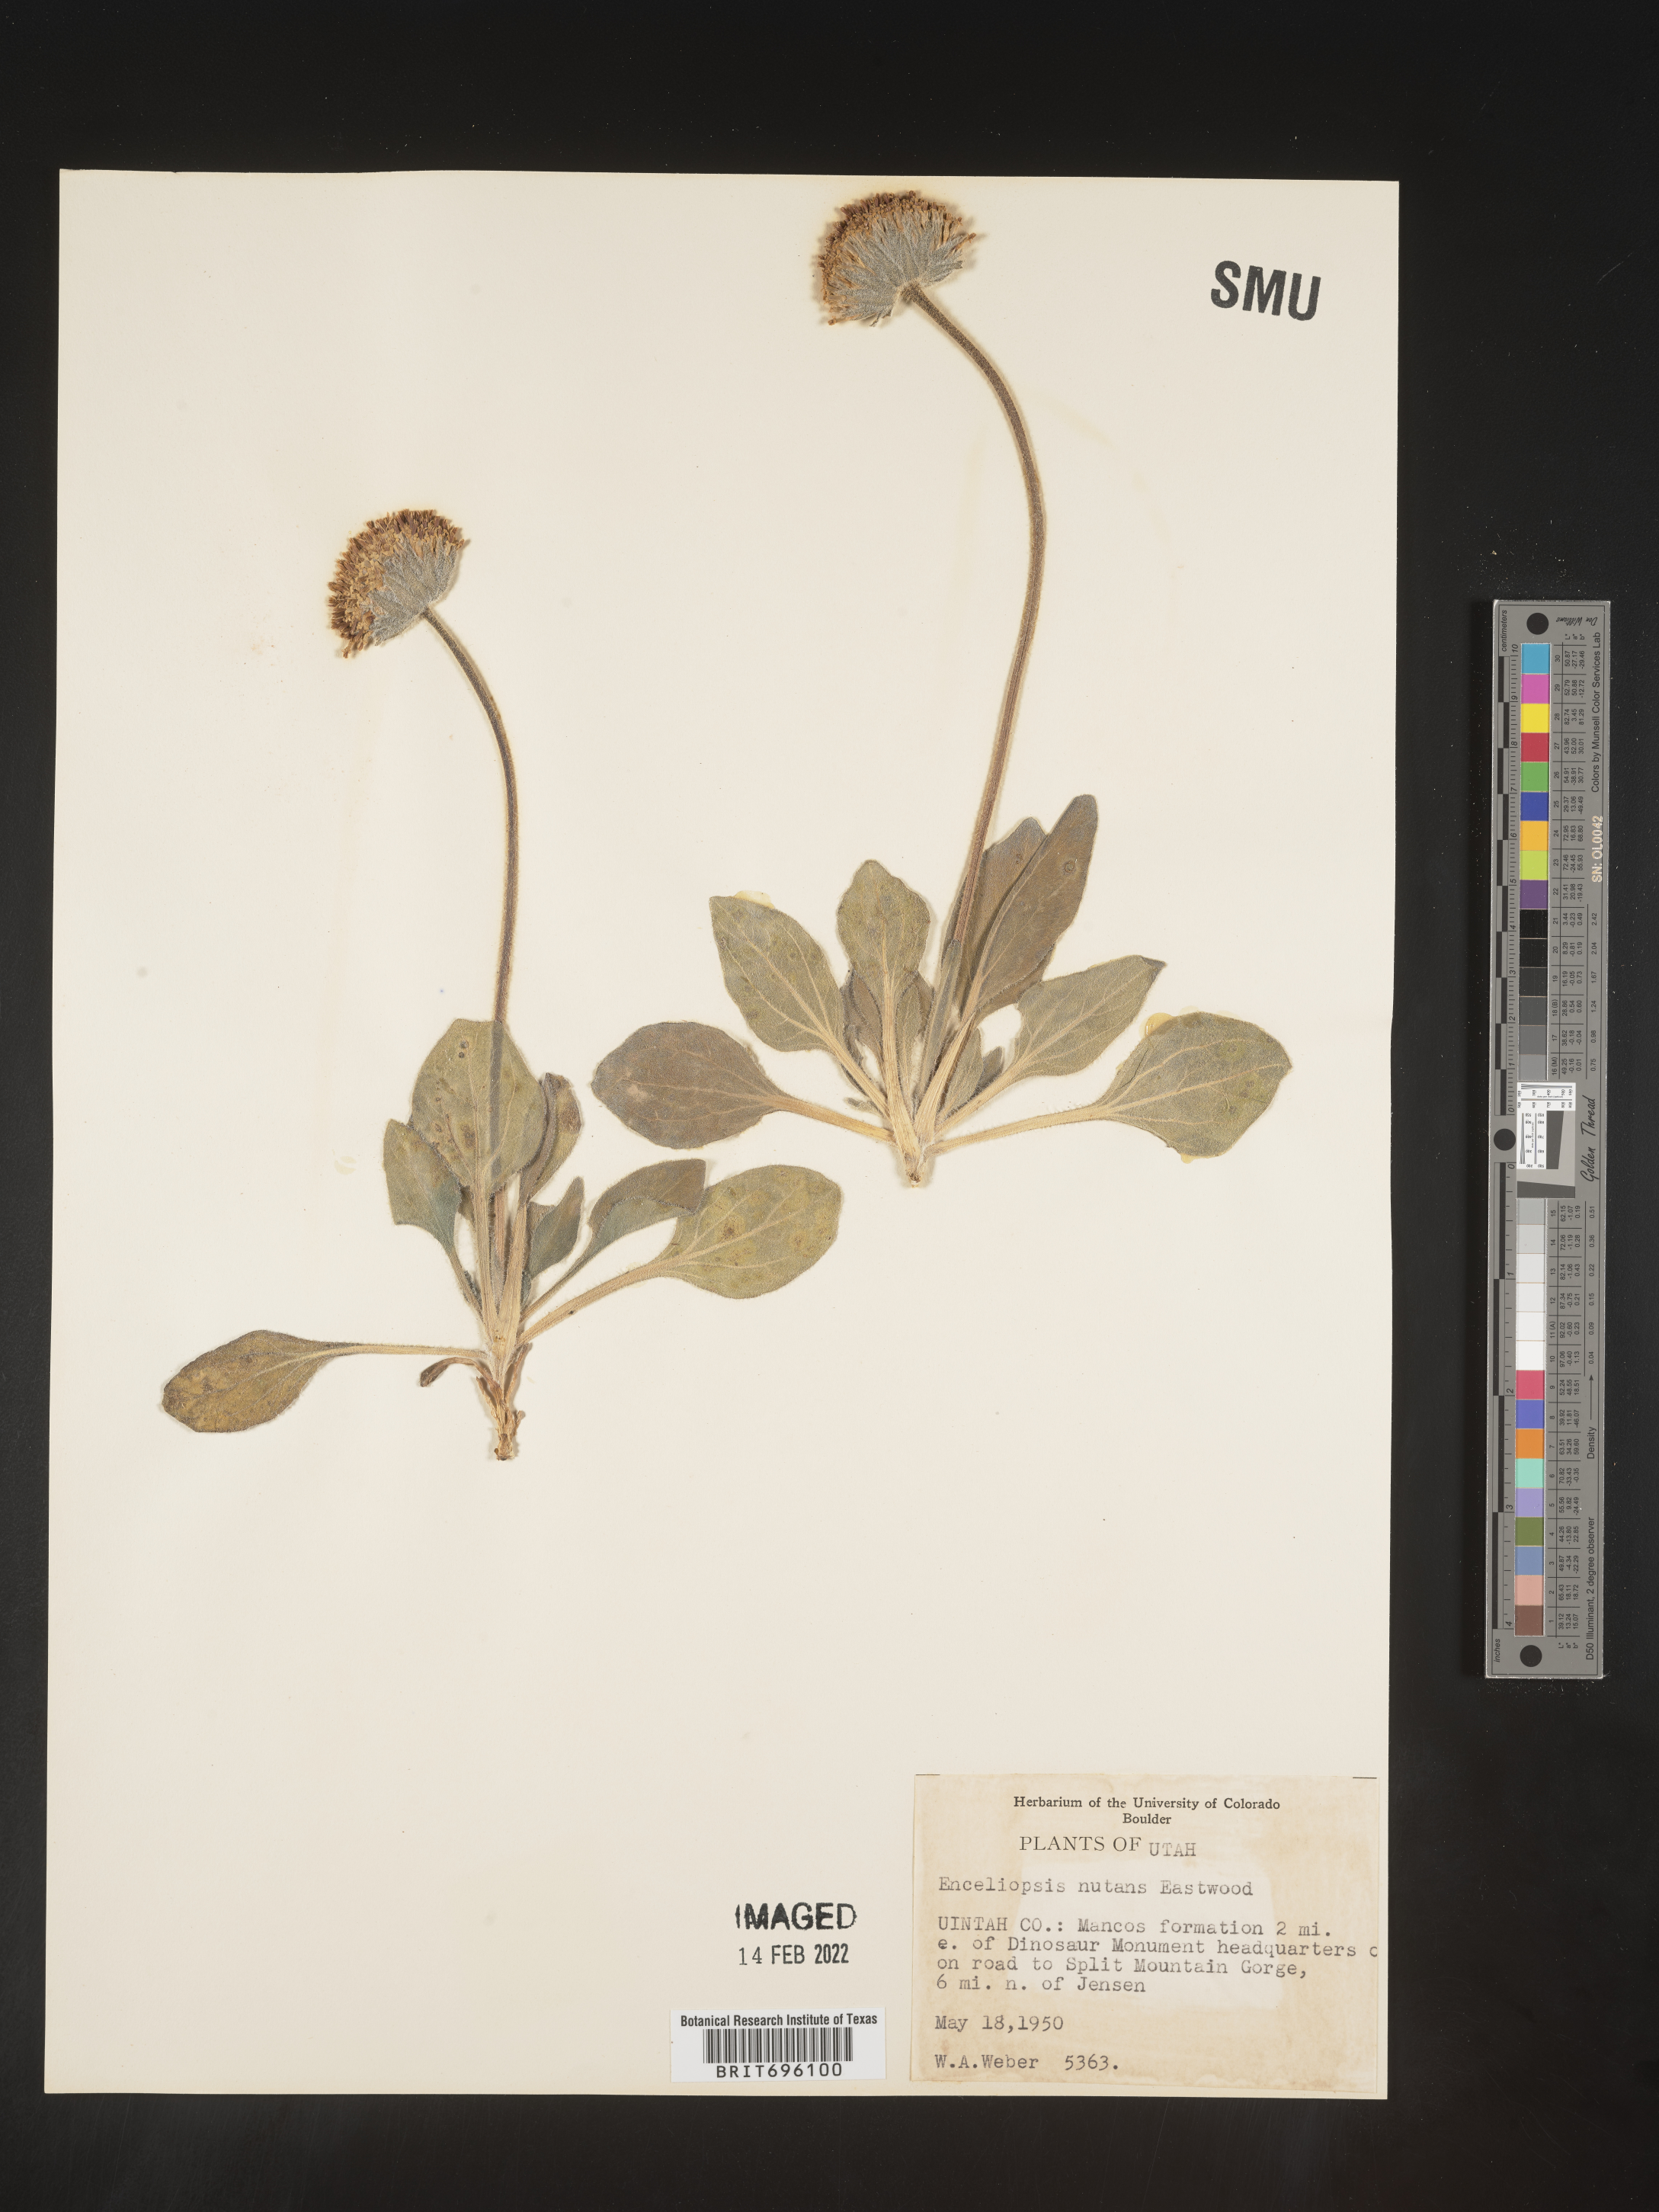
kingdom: Plantae
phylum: Tracheophyta
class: Magnoliopsida
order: Asterales
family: Asteraceae
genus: Encelia
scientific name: Encelia nutans
